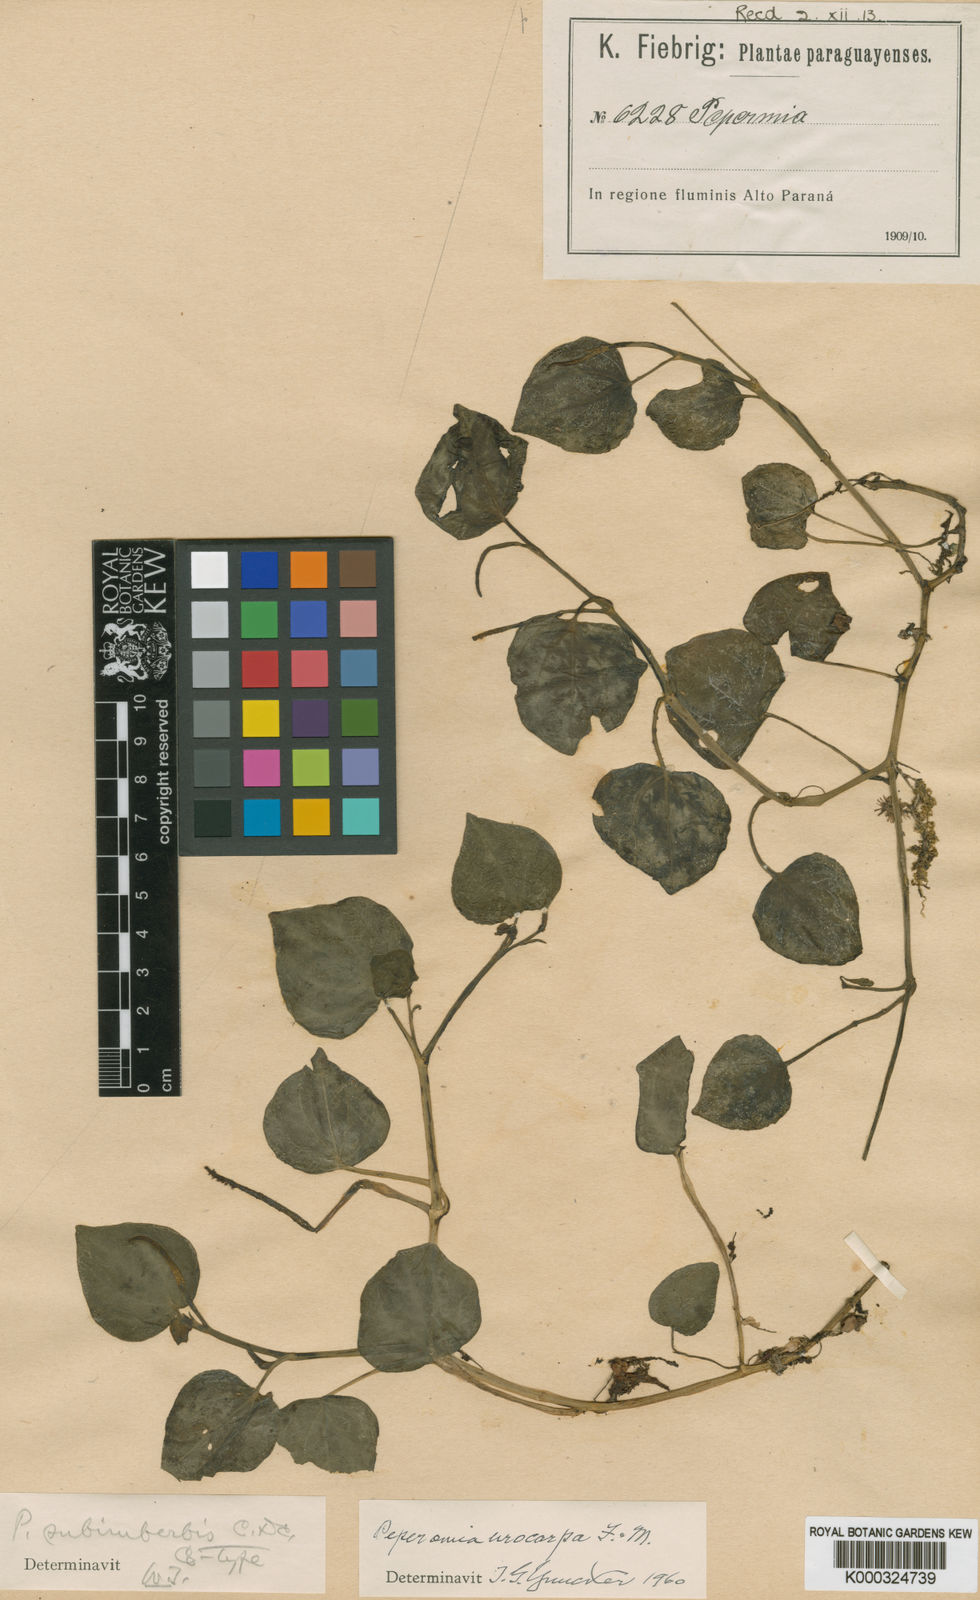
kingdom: Plantae
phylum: Tracheophyta
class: Magnoliopsida
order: Piperales
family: Piperaceae
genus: Peperomia
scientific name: Peperomia
